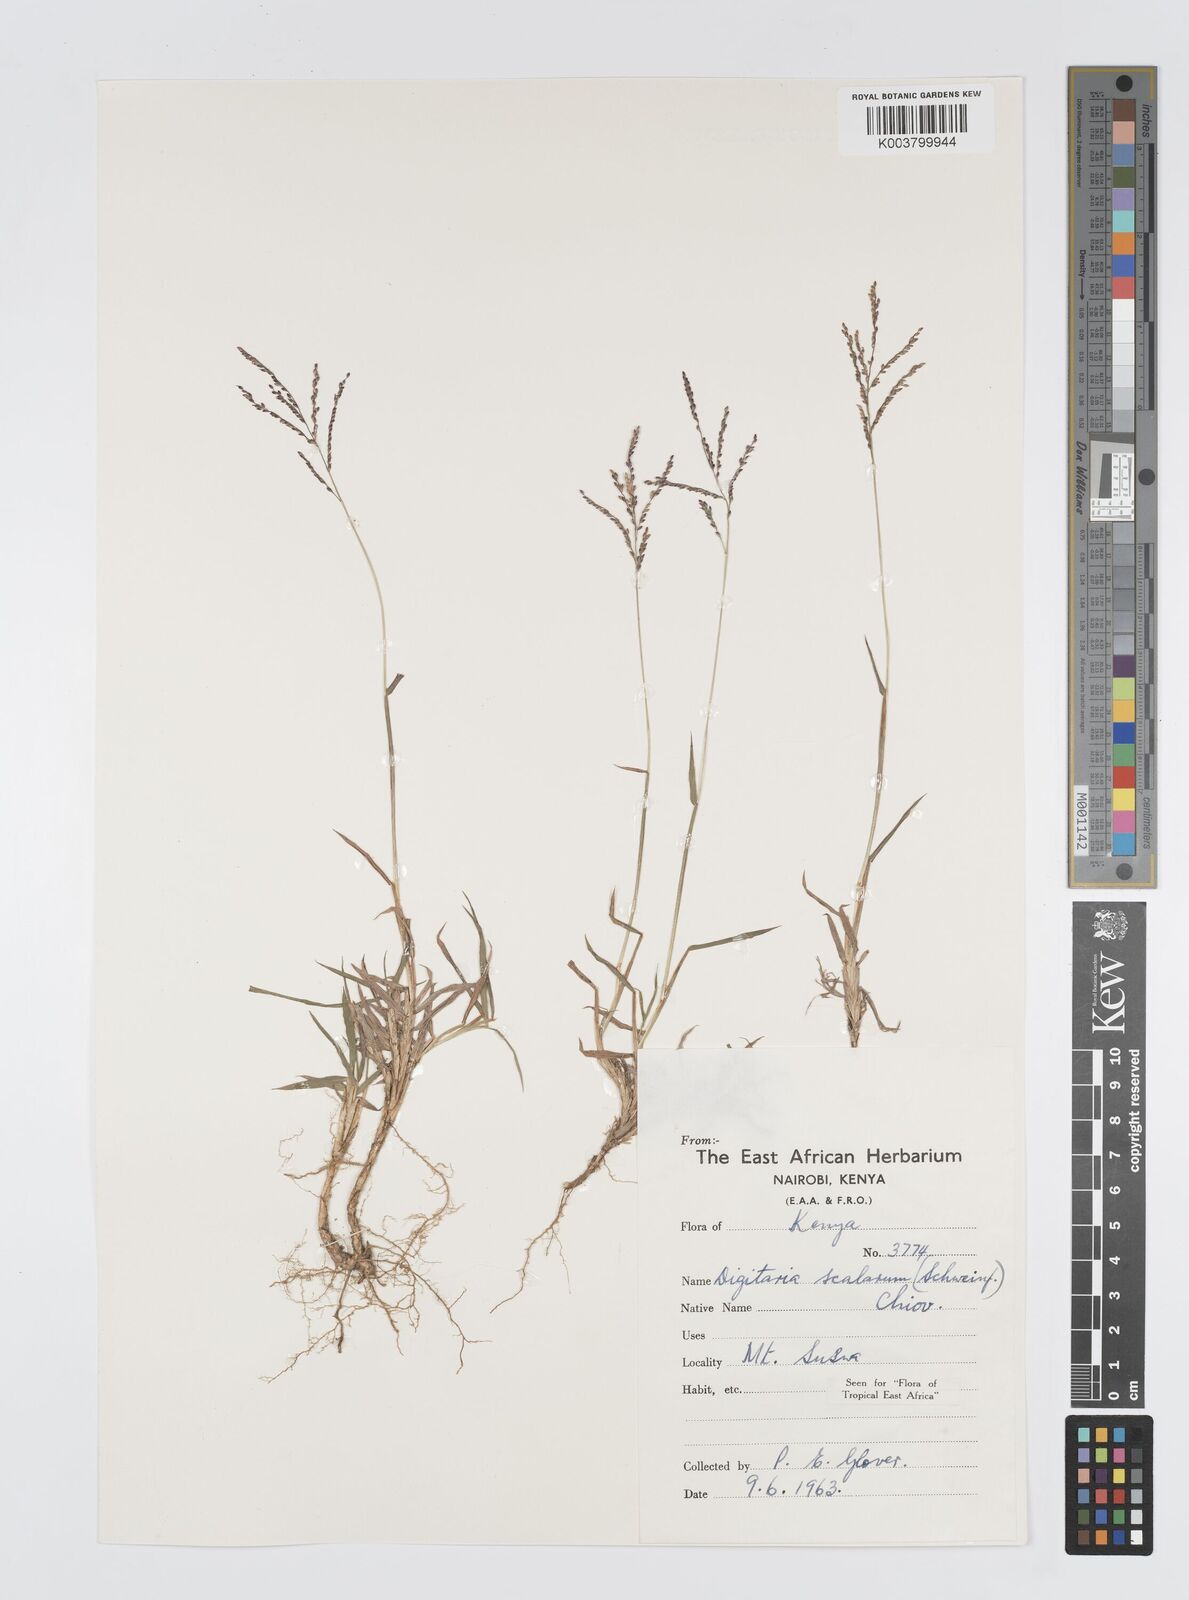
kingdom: Plantae
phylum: Tracheophyta
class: Liliopsida
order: Poales
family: Poaceae
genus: Digitaria
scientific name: Digitaria abyssinica
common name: African couchgrass
